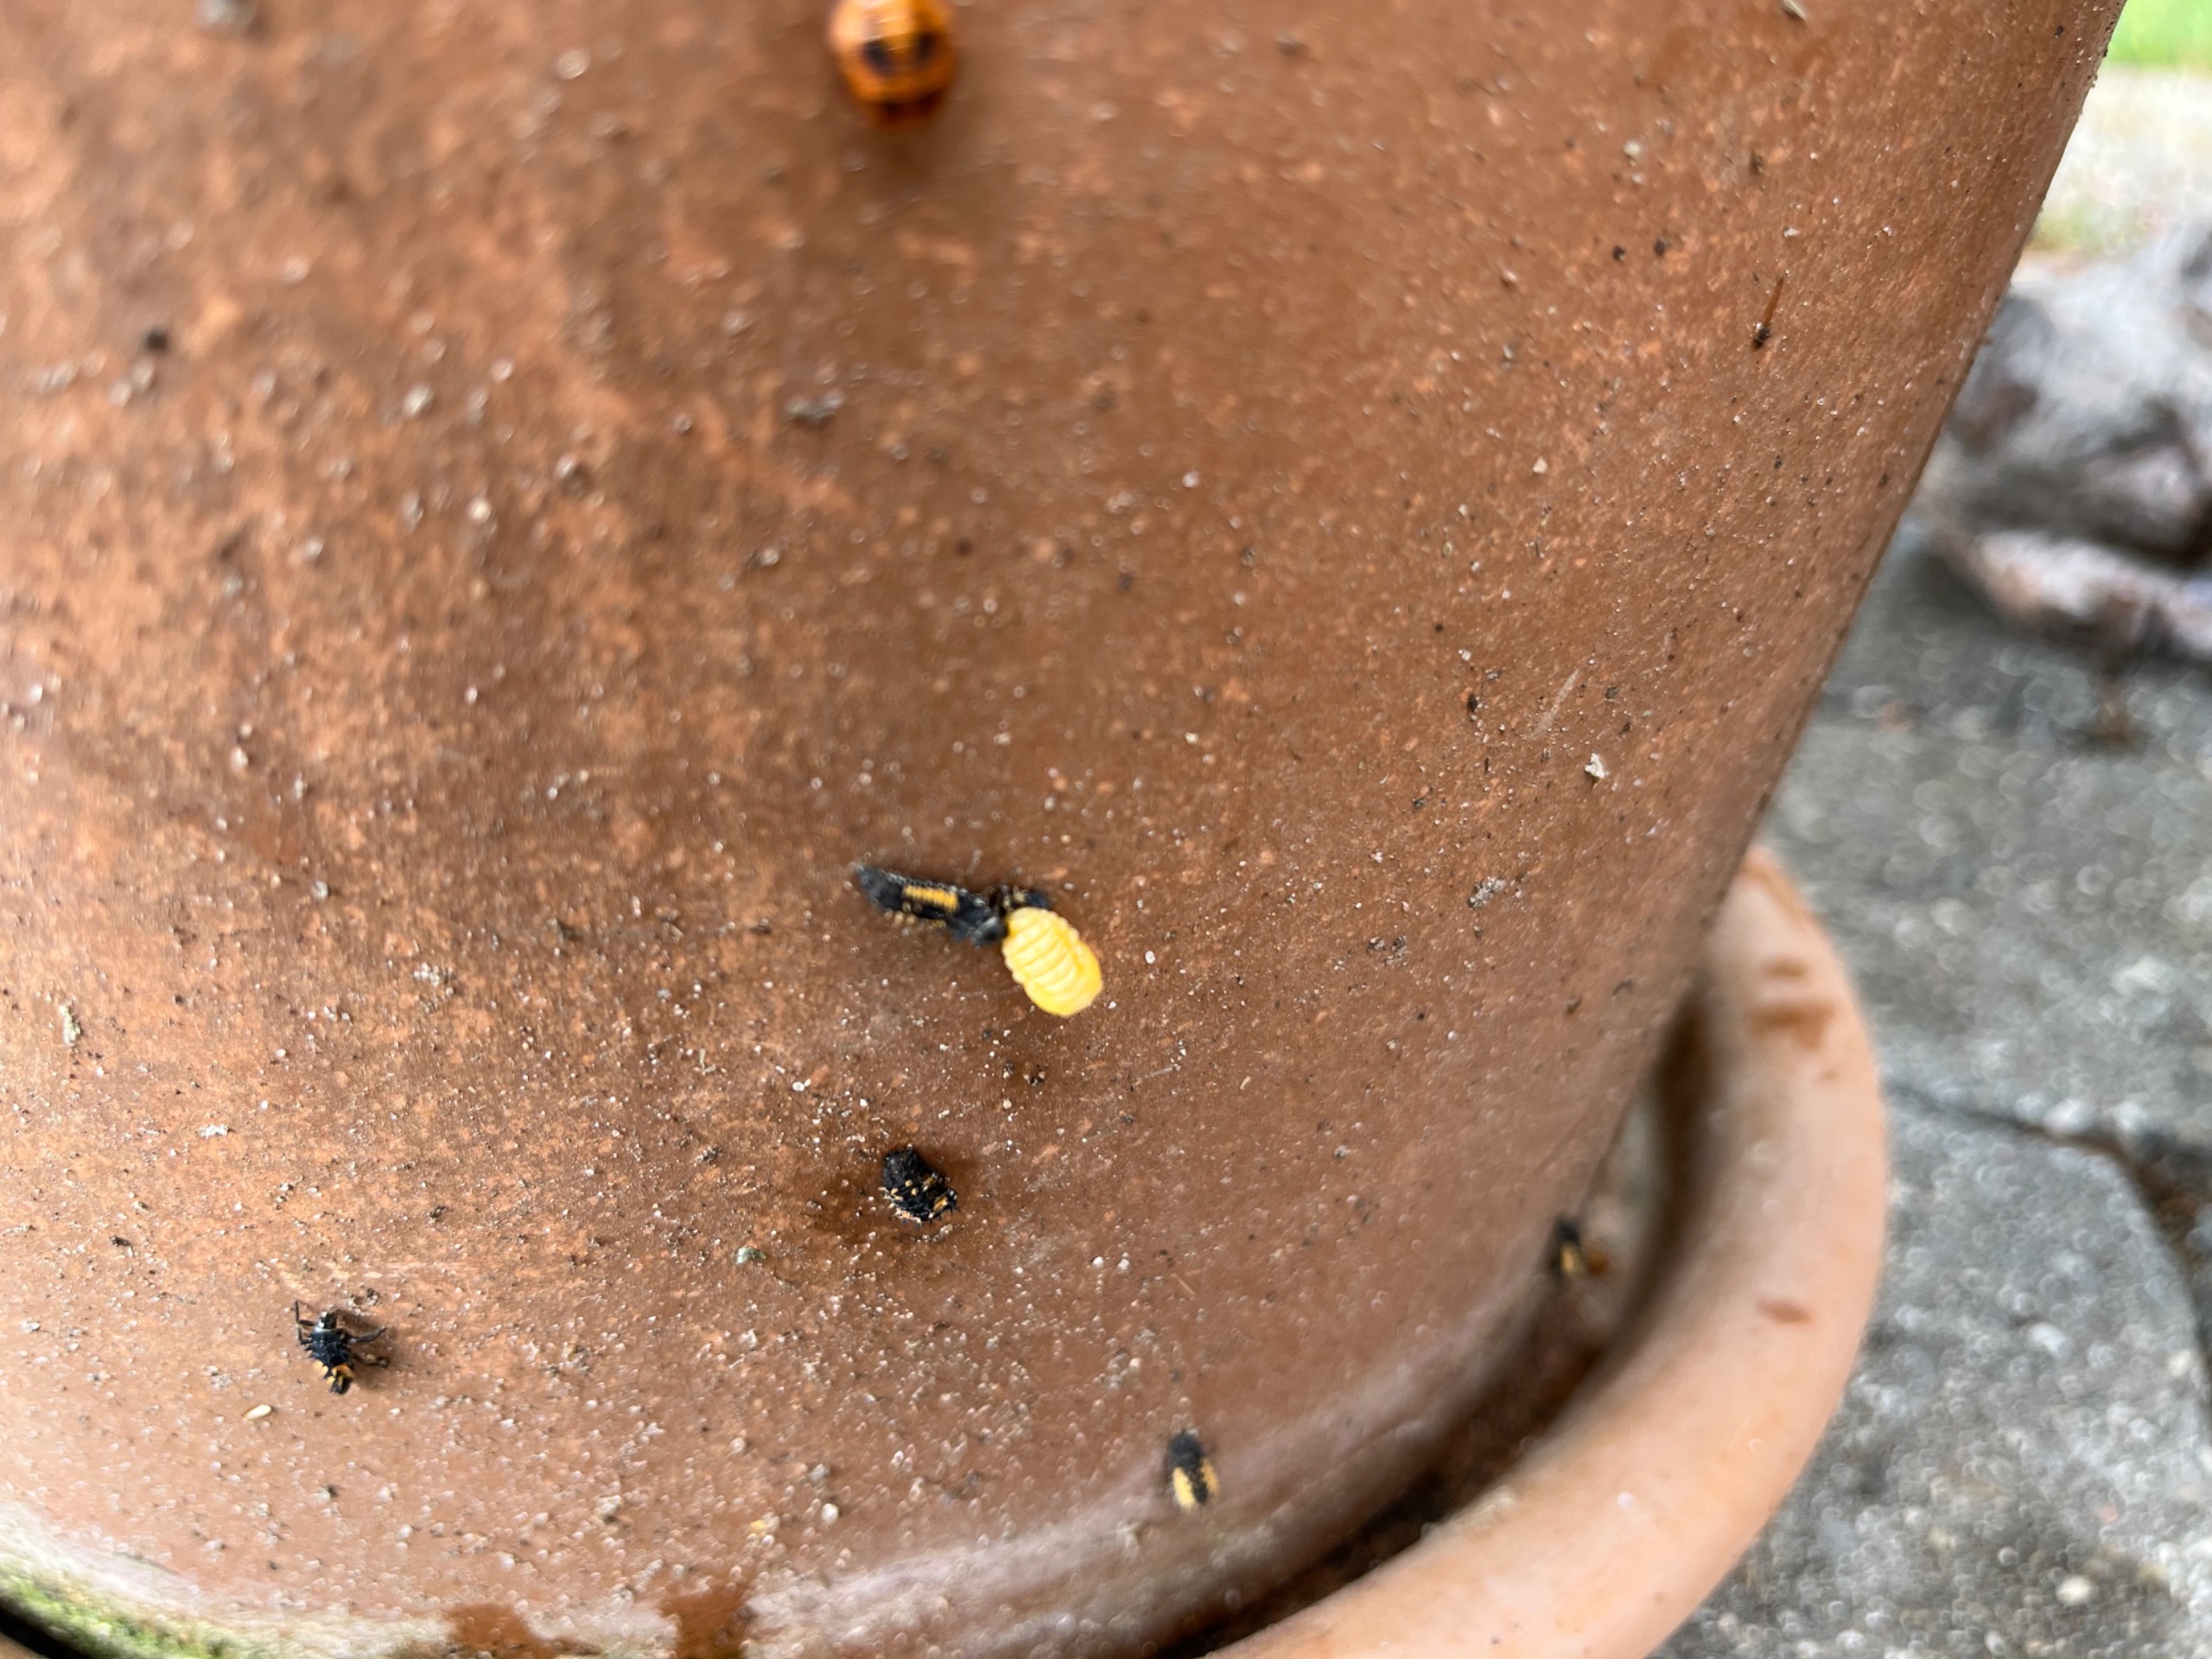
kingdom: Animalia
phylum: Arthropoda
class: Insecta
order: Coleoptera
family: Coccinellidae
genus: Harmonia
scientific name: Harmonia axyridis
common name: Harlekinmariehøne
